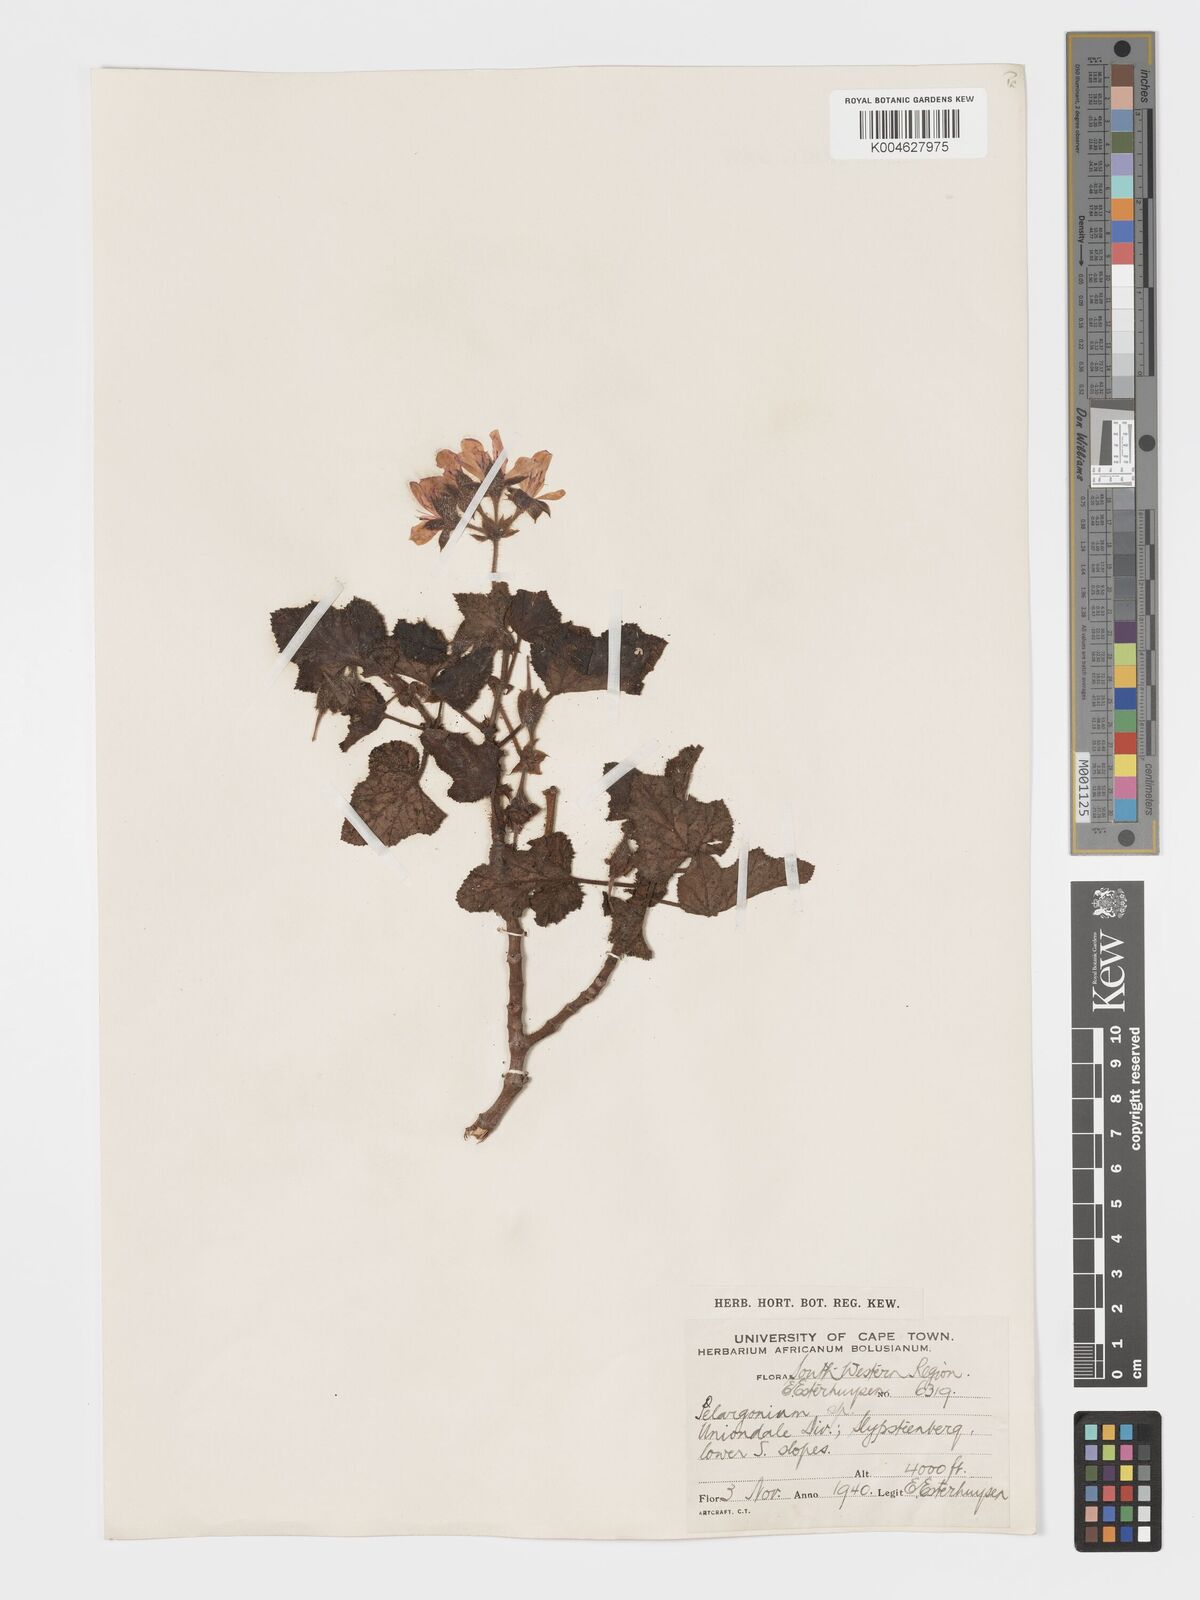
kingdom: Plantae
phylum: Tracheophyta
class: Magnoliopsida
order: Geraniales
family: Geraniaceae
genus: Pelargonium
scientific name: Pelargonium panduriforme
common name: Oakleaf garden geranium
